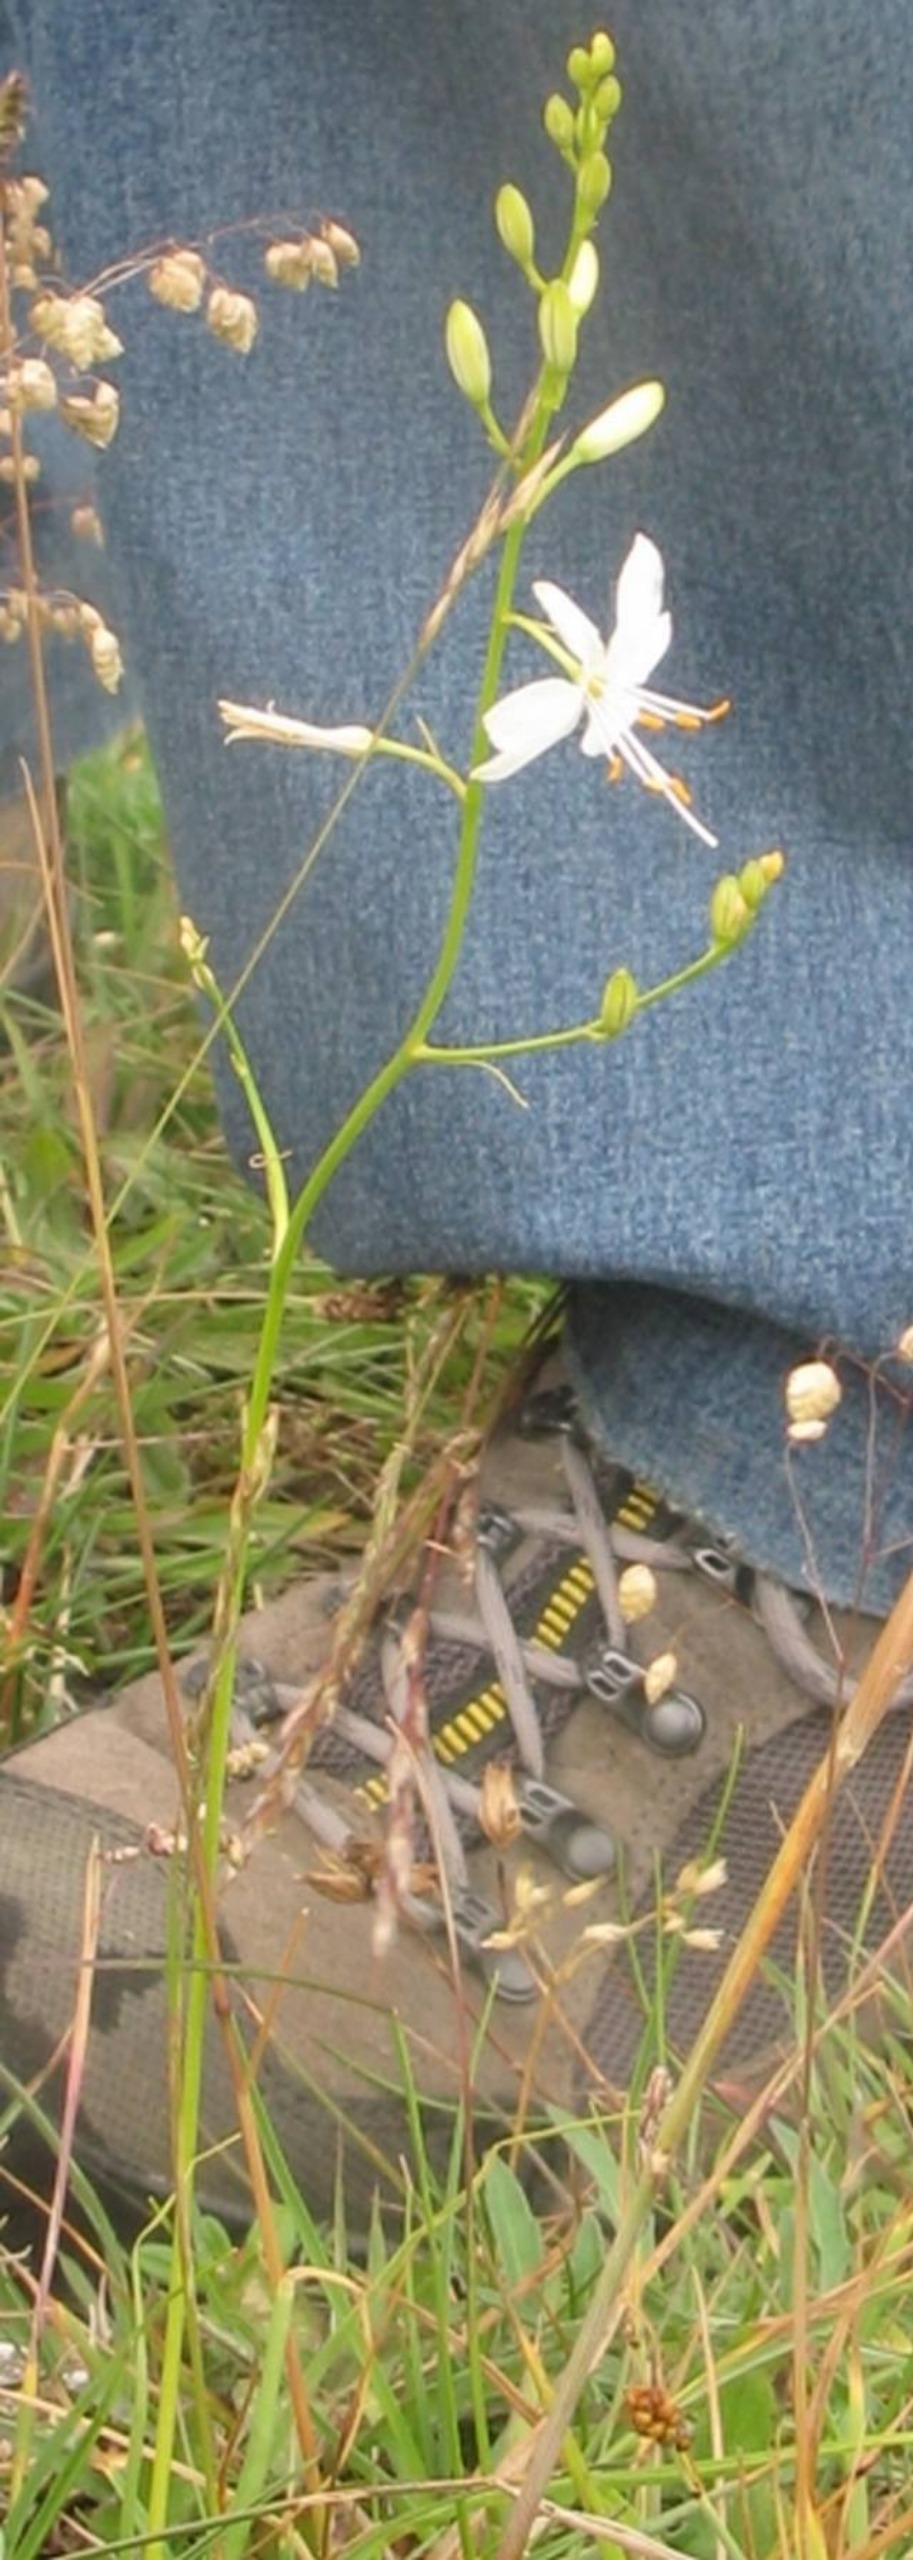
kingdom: Plantae
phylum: Tracheophyta
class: Liliopsida
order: Asparagales
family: Asparagaceae
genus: Anthericum
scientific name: Anthericum ramosum
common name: Grenet edderkopurt
